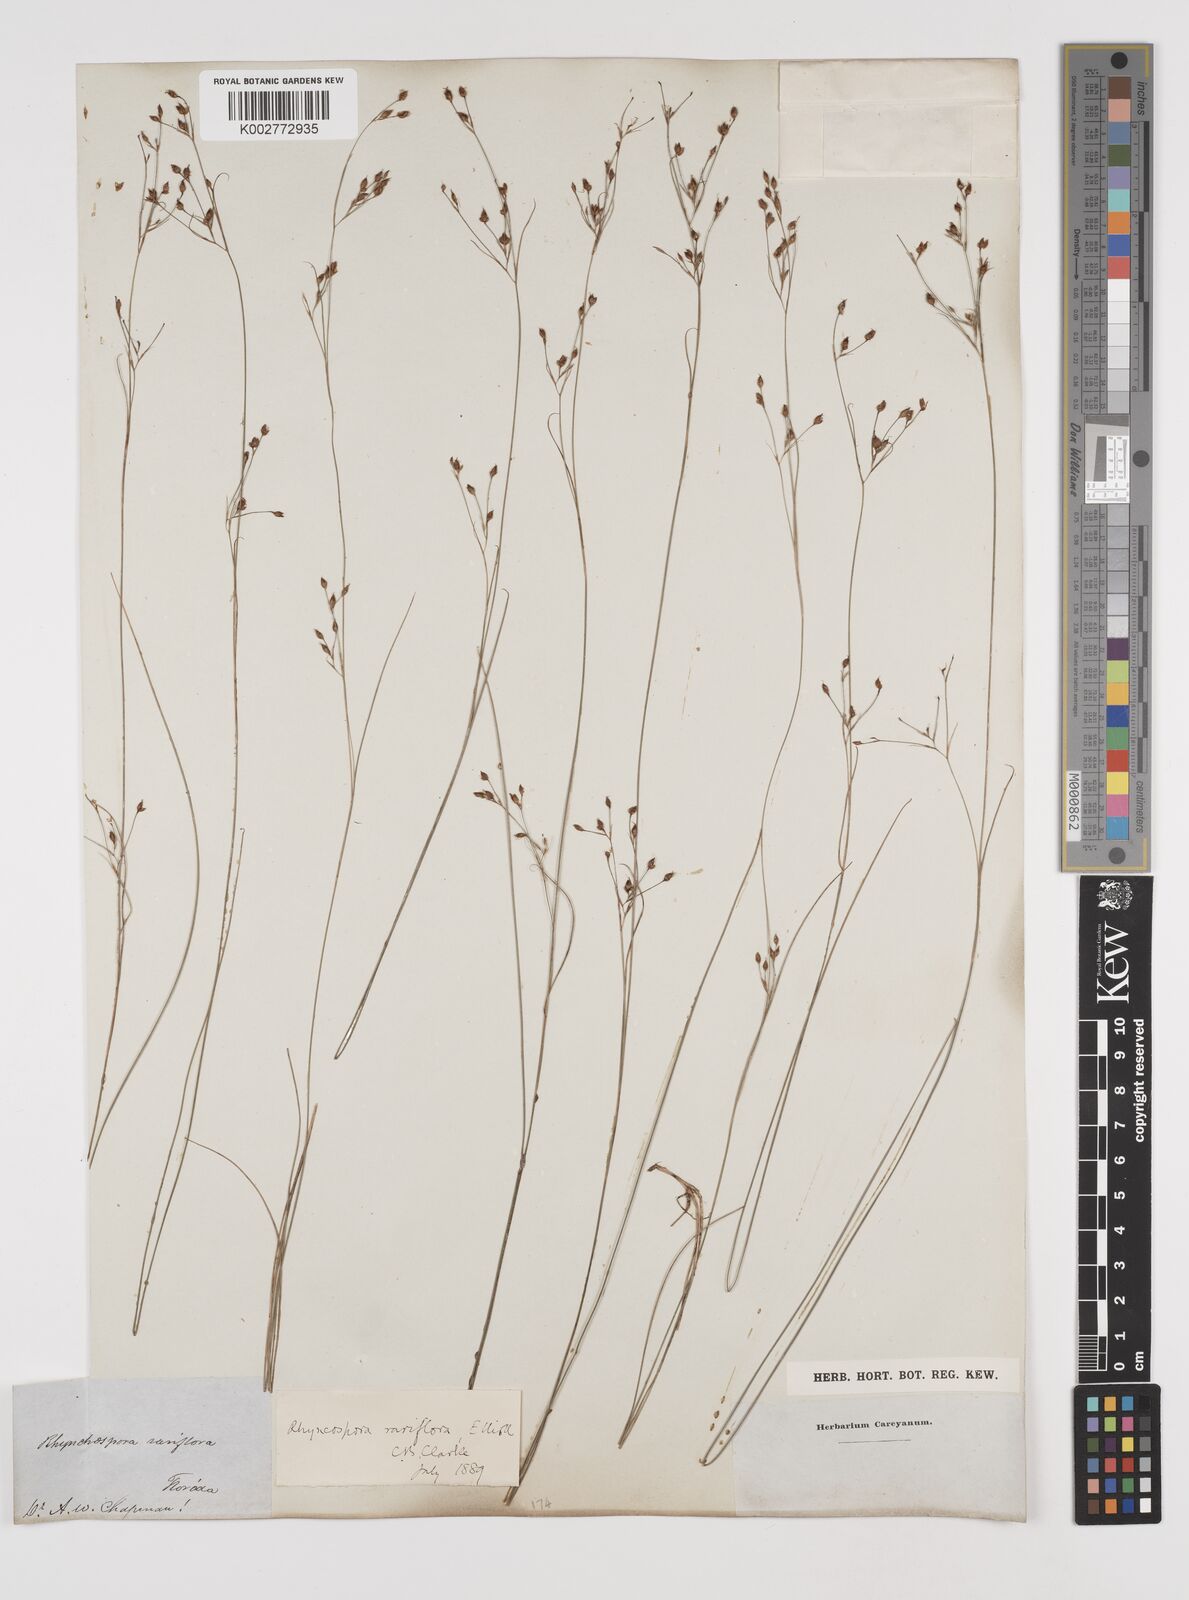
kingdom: Plantae
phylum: Tracheophyta
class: Liliopsida
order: Poales
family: Cyperaceae
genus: Rhynchospora
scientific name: Rhynchospora rariflora
